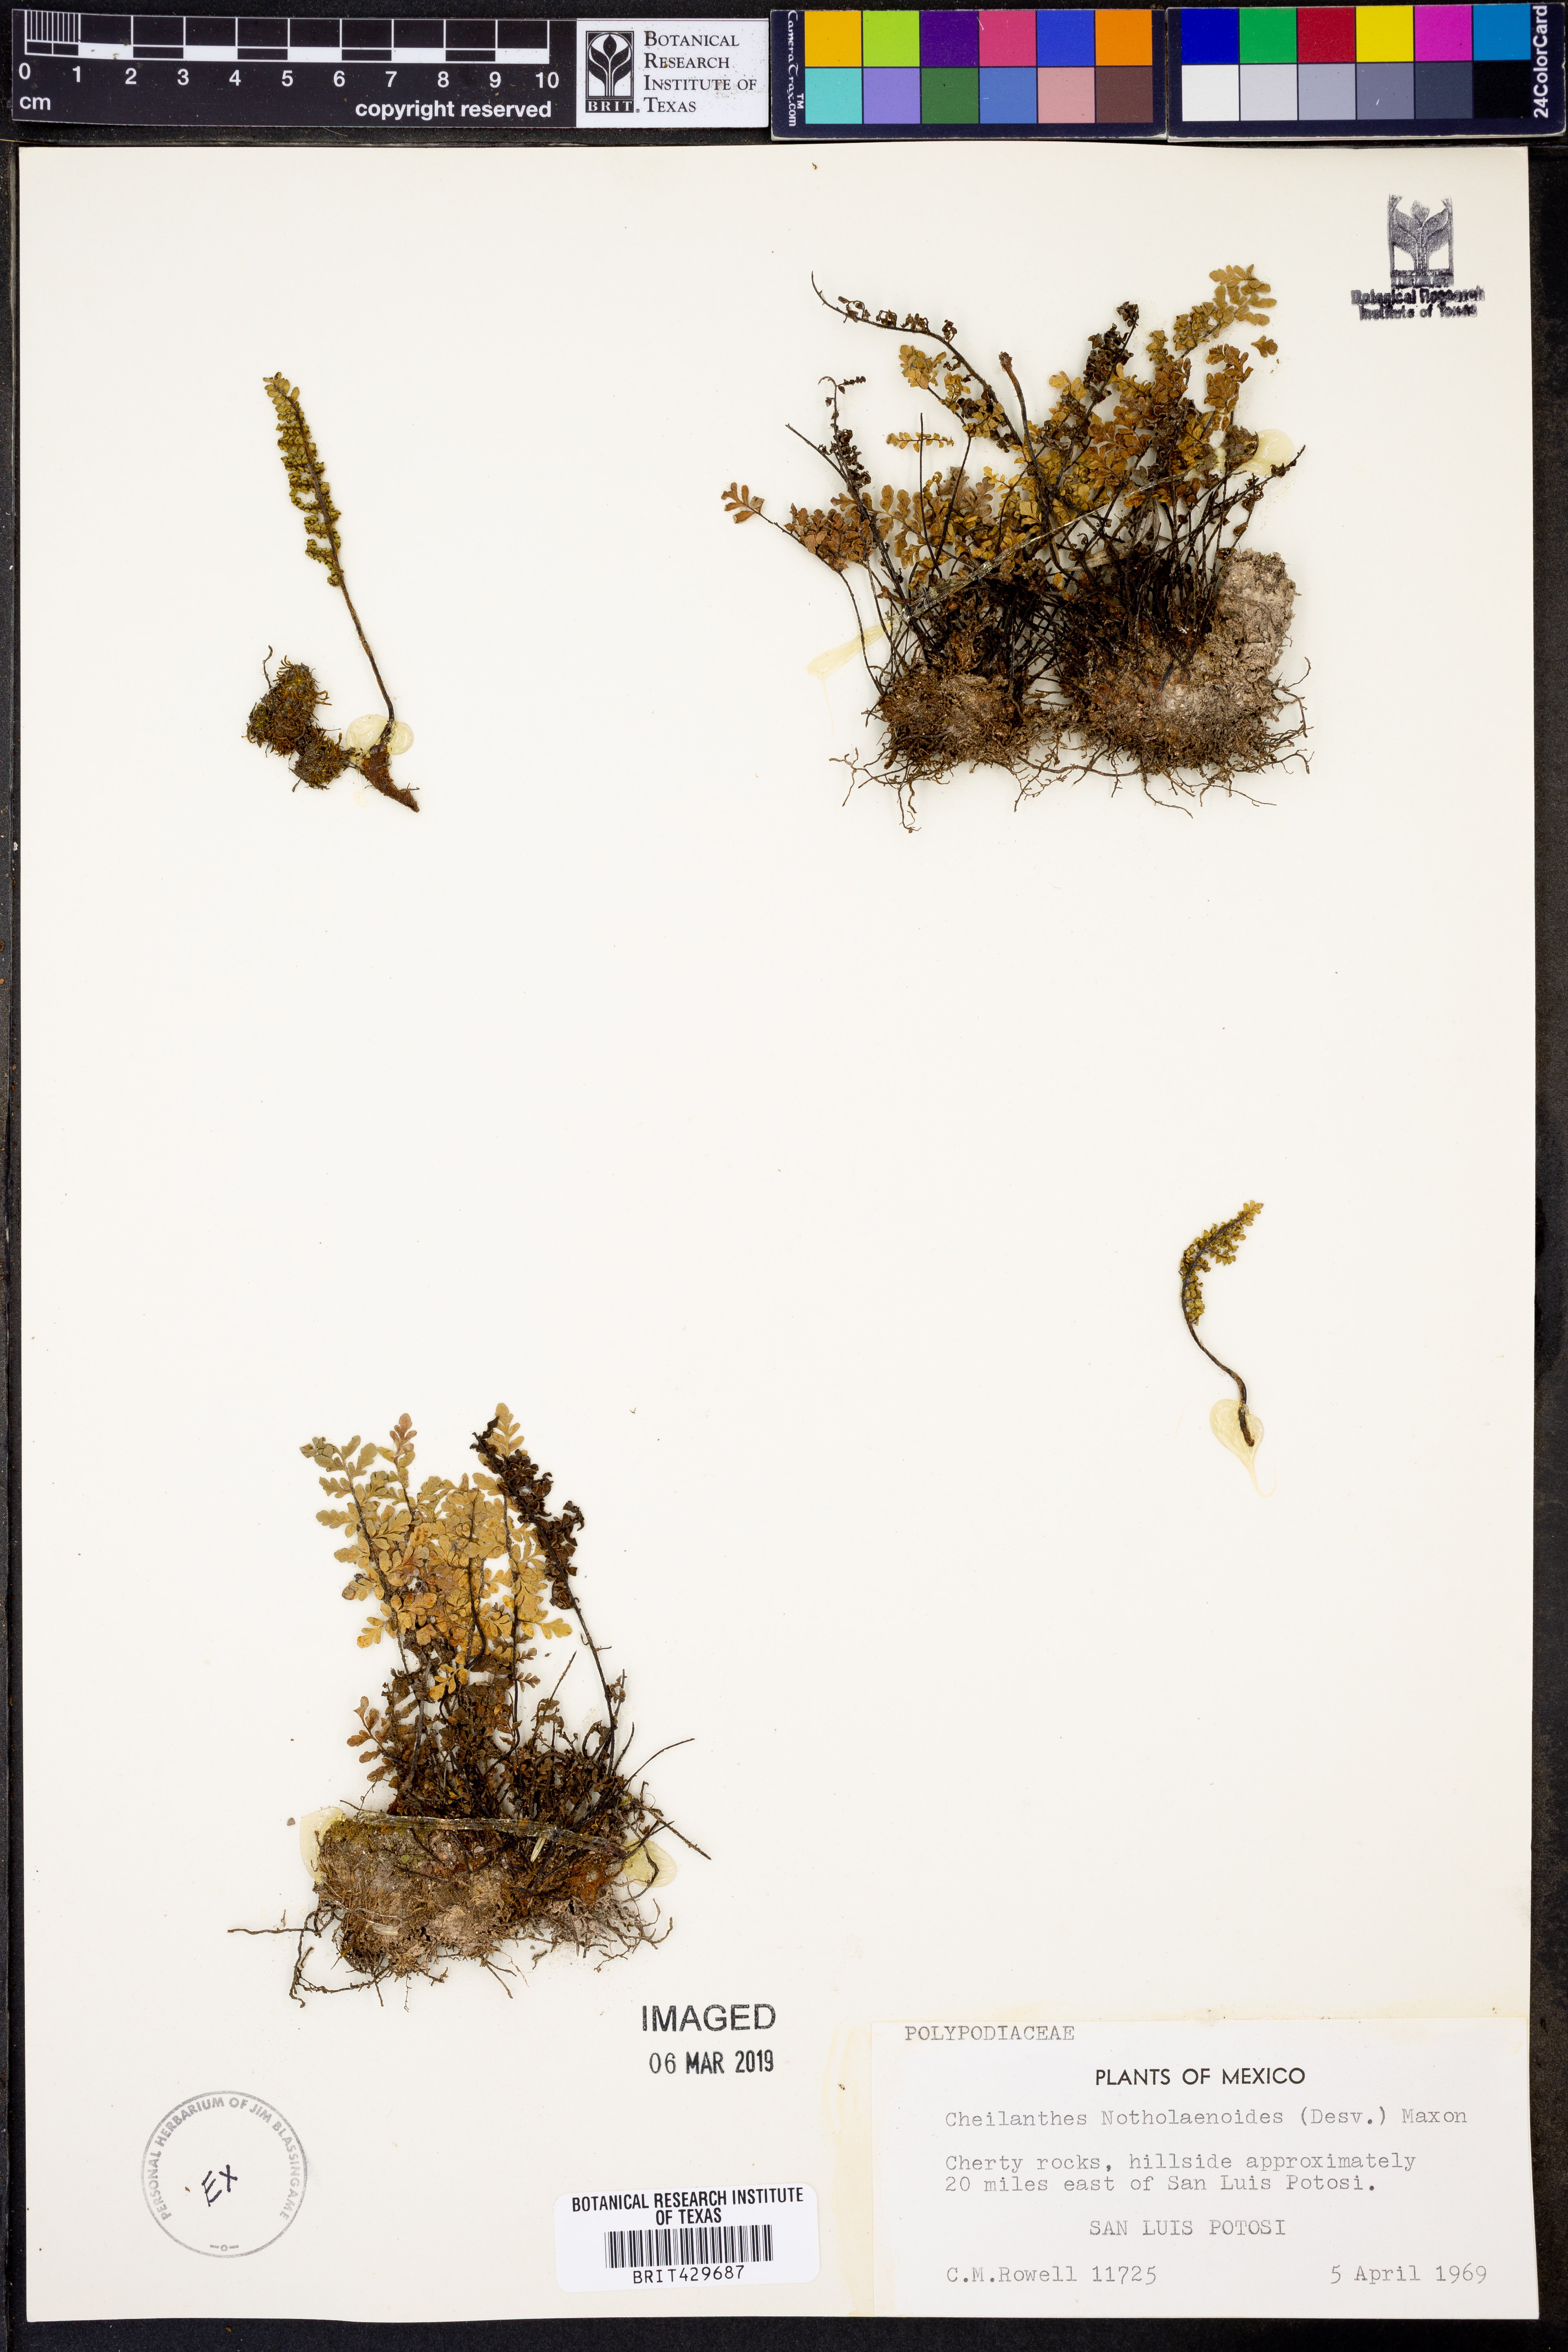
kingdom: Plantae
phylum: Tracheophyta
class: Polypodiopsida
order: Polypodiales
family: Pteridaceae
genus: Myriopteris
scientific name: Myriopteris notholaenoides
